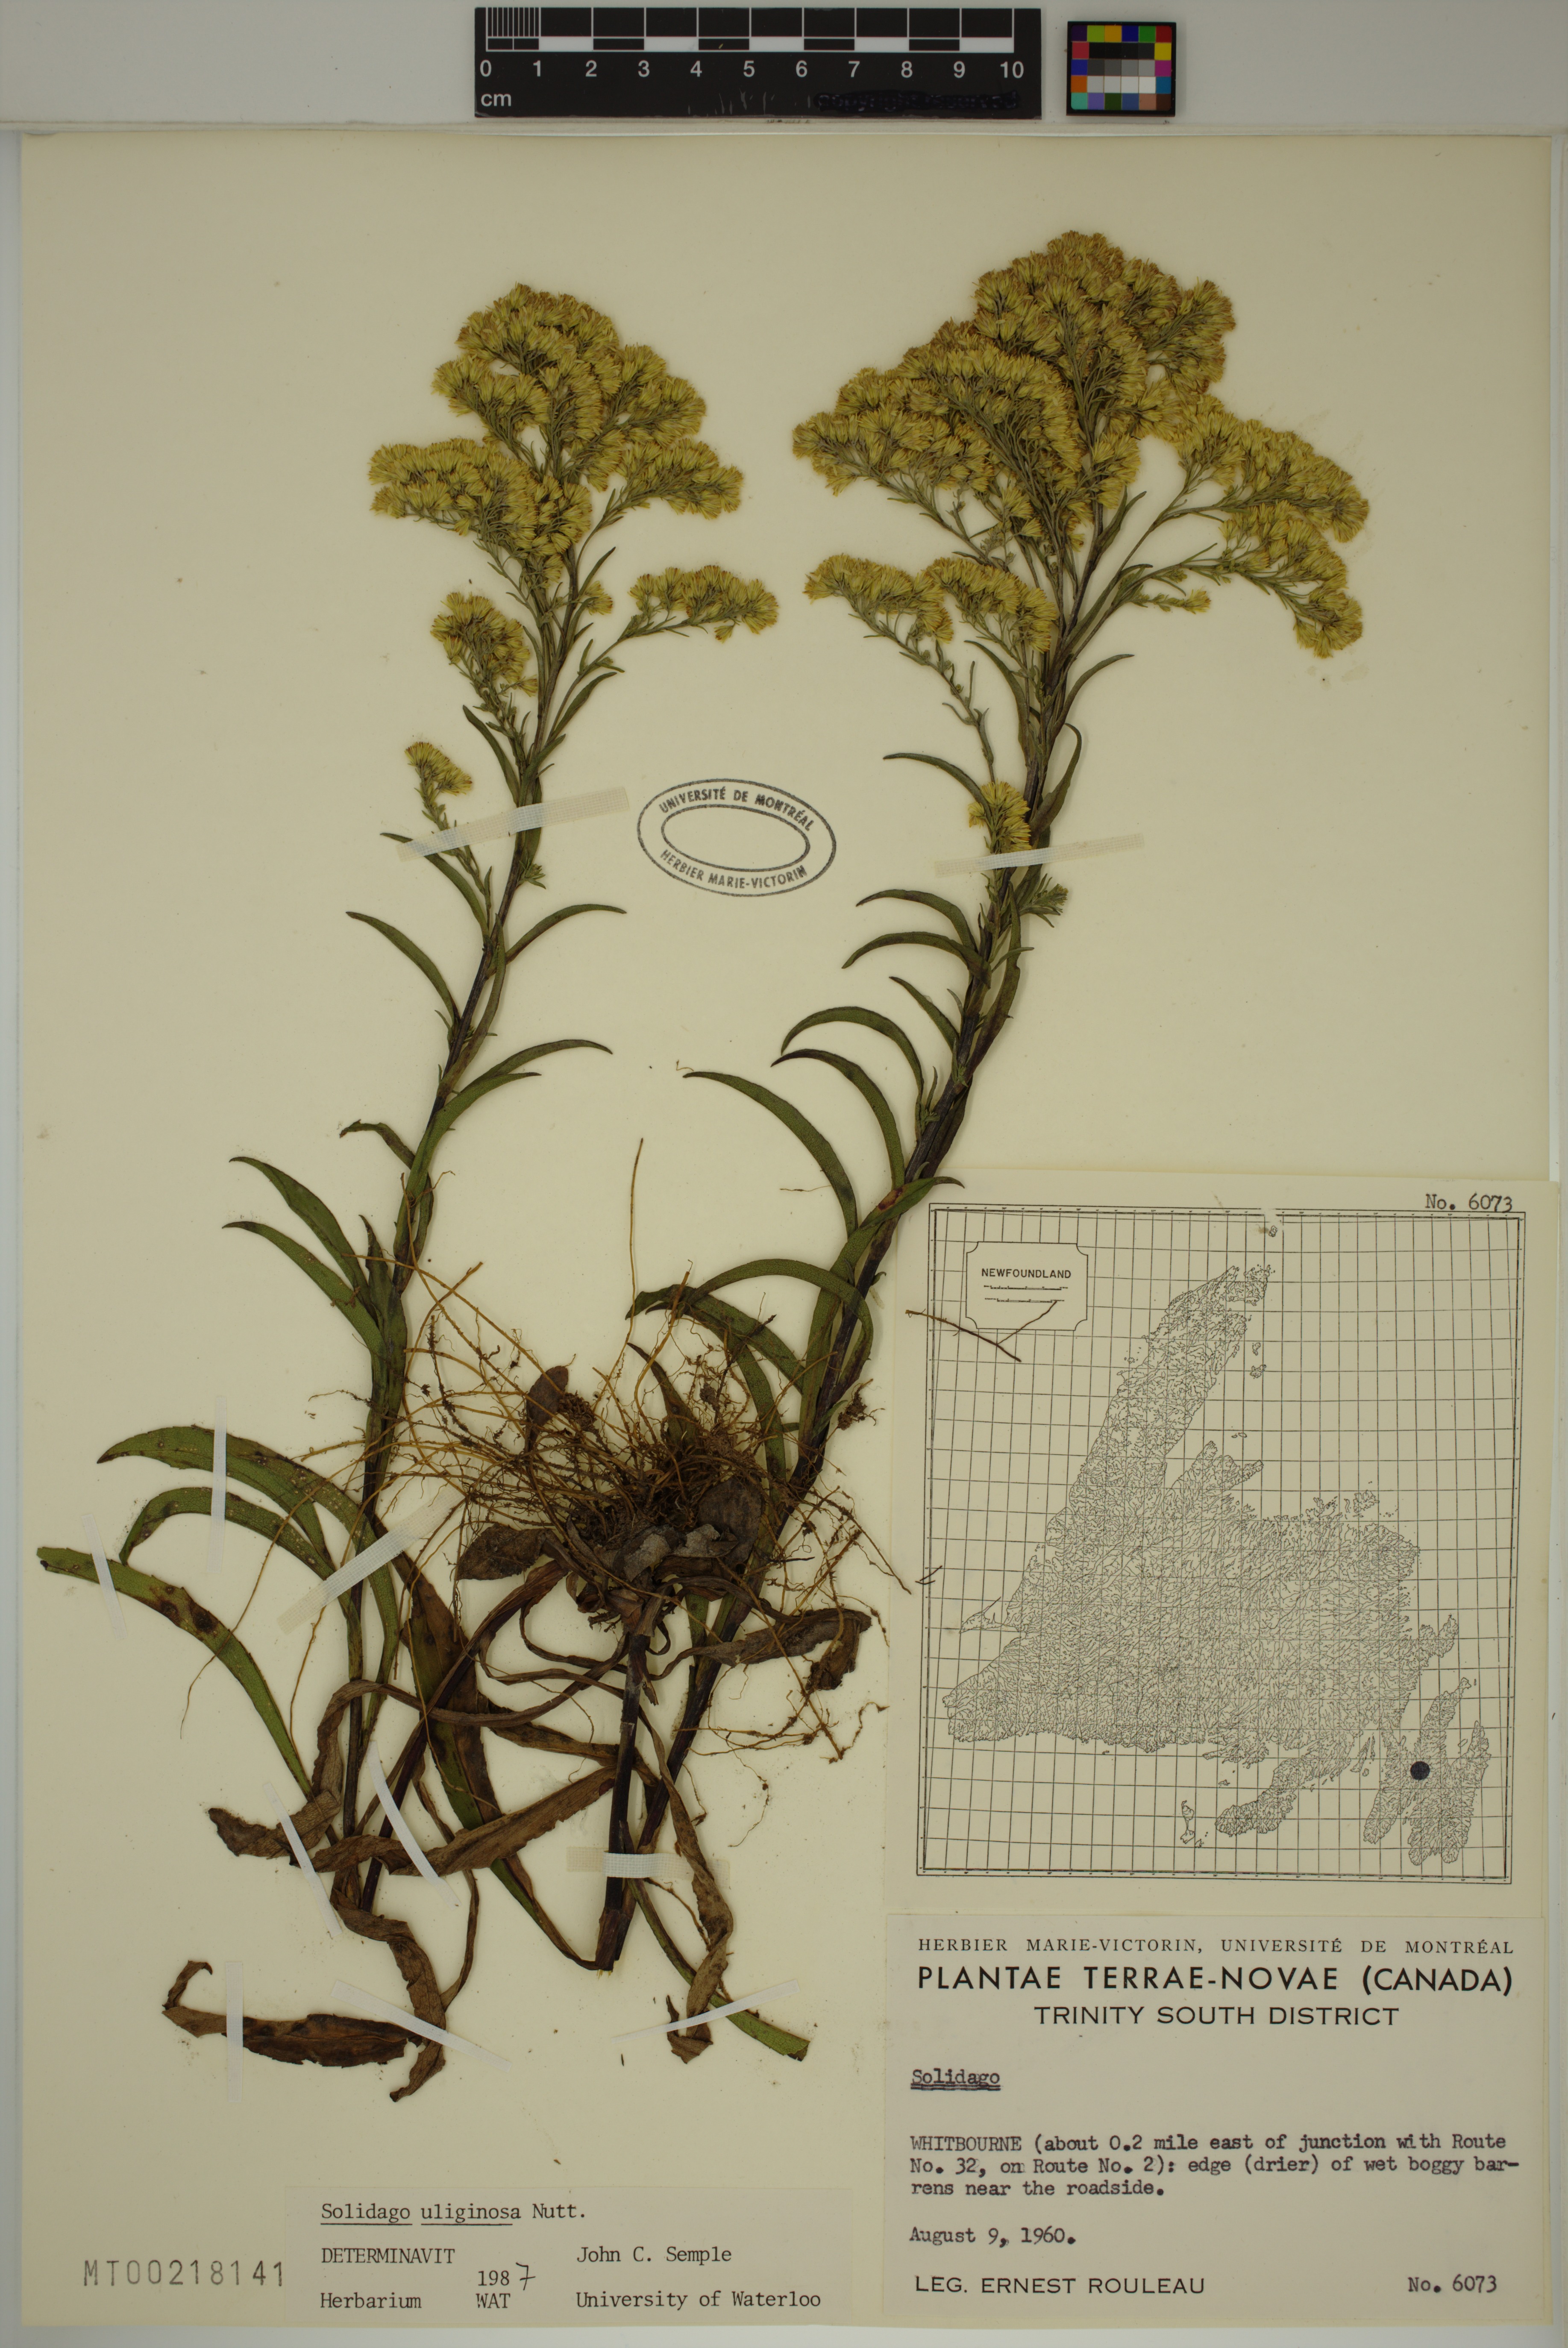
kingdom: Plantae
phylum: Tracheophyta
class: Magnoliopsida
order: Asterales
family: Asteraceae
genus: Solidago
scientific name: Solidago uliginosa
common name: Bog goldenrod
